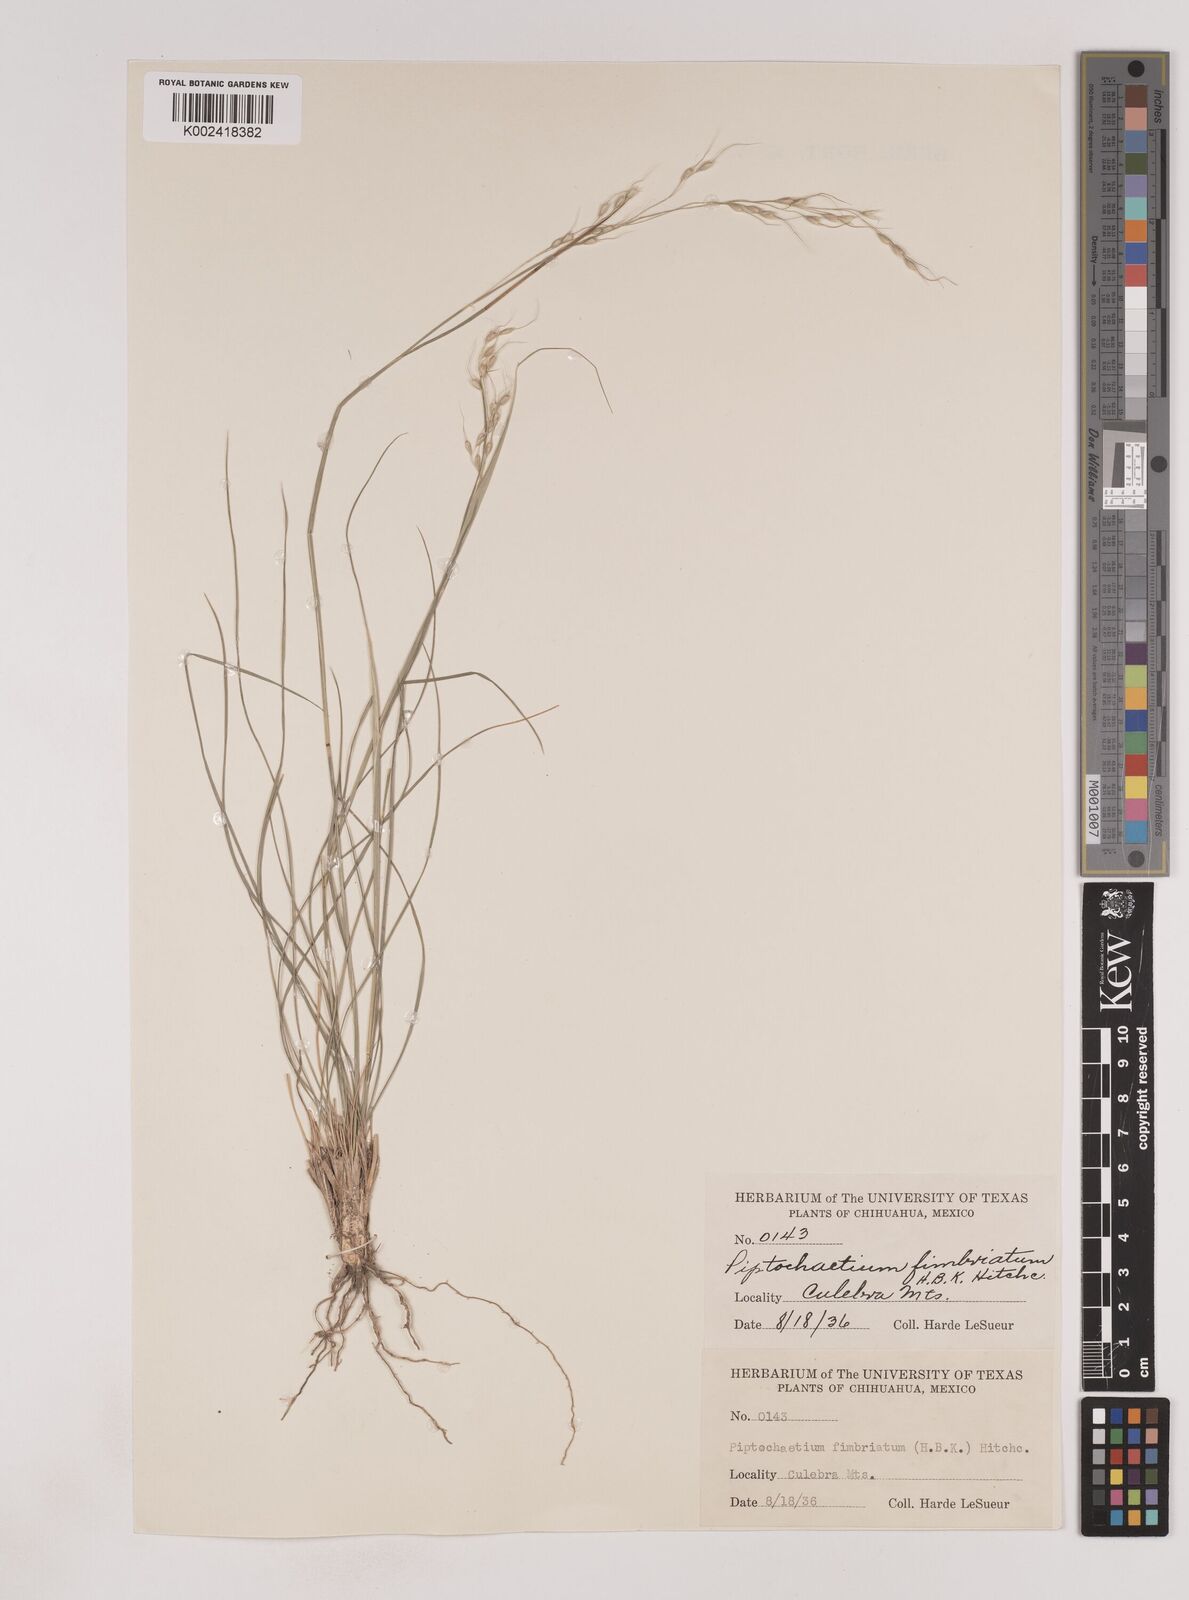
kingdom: Plantae
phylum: Tracheophyta
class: Liliopsida
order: Poales
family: Poaceae
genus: Piptochaetium
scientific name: Piptochaetium fimbriatum
